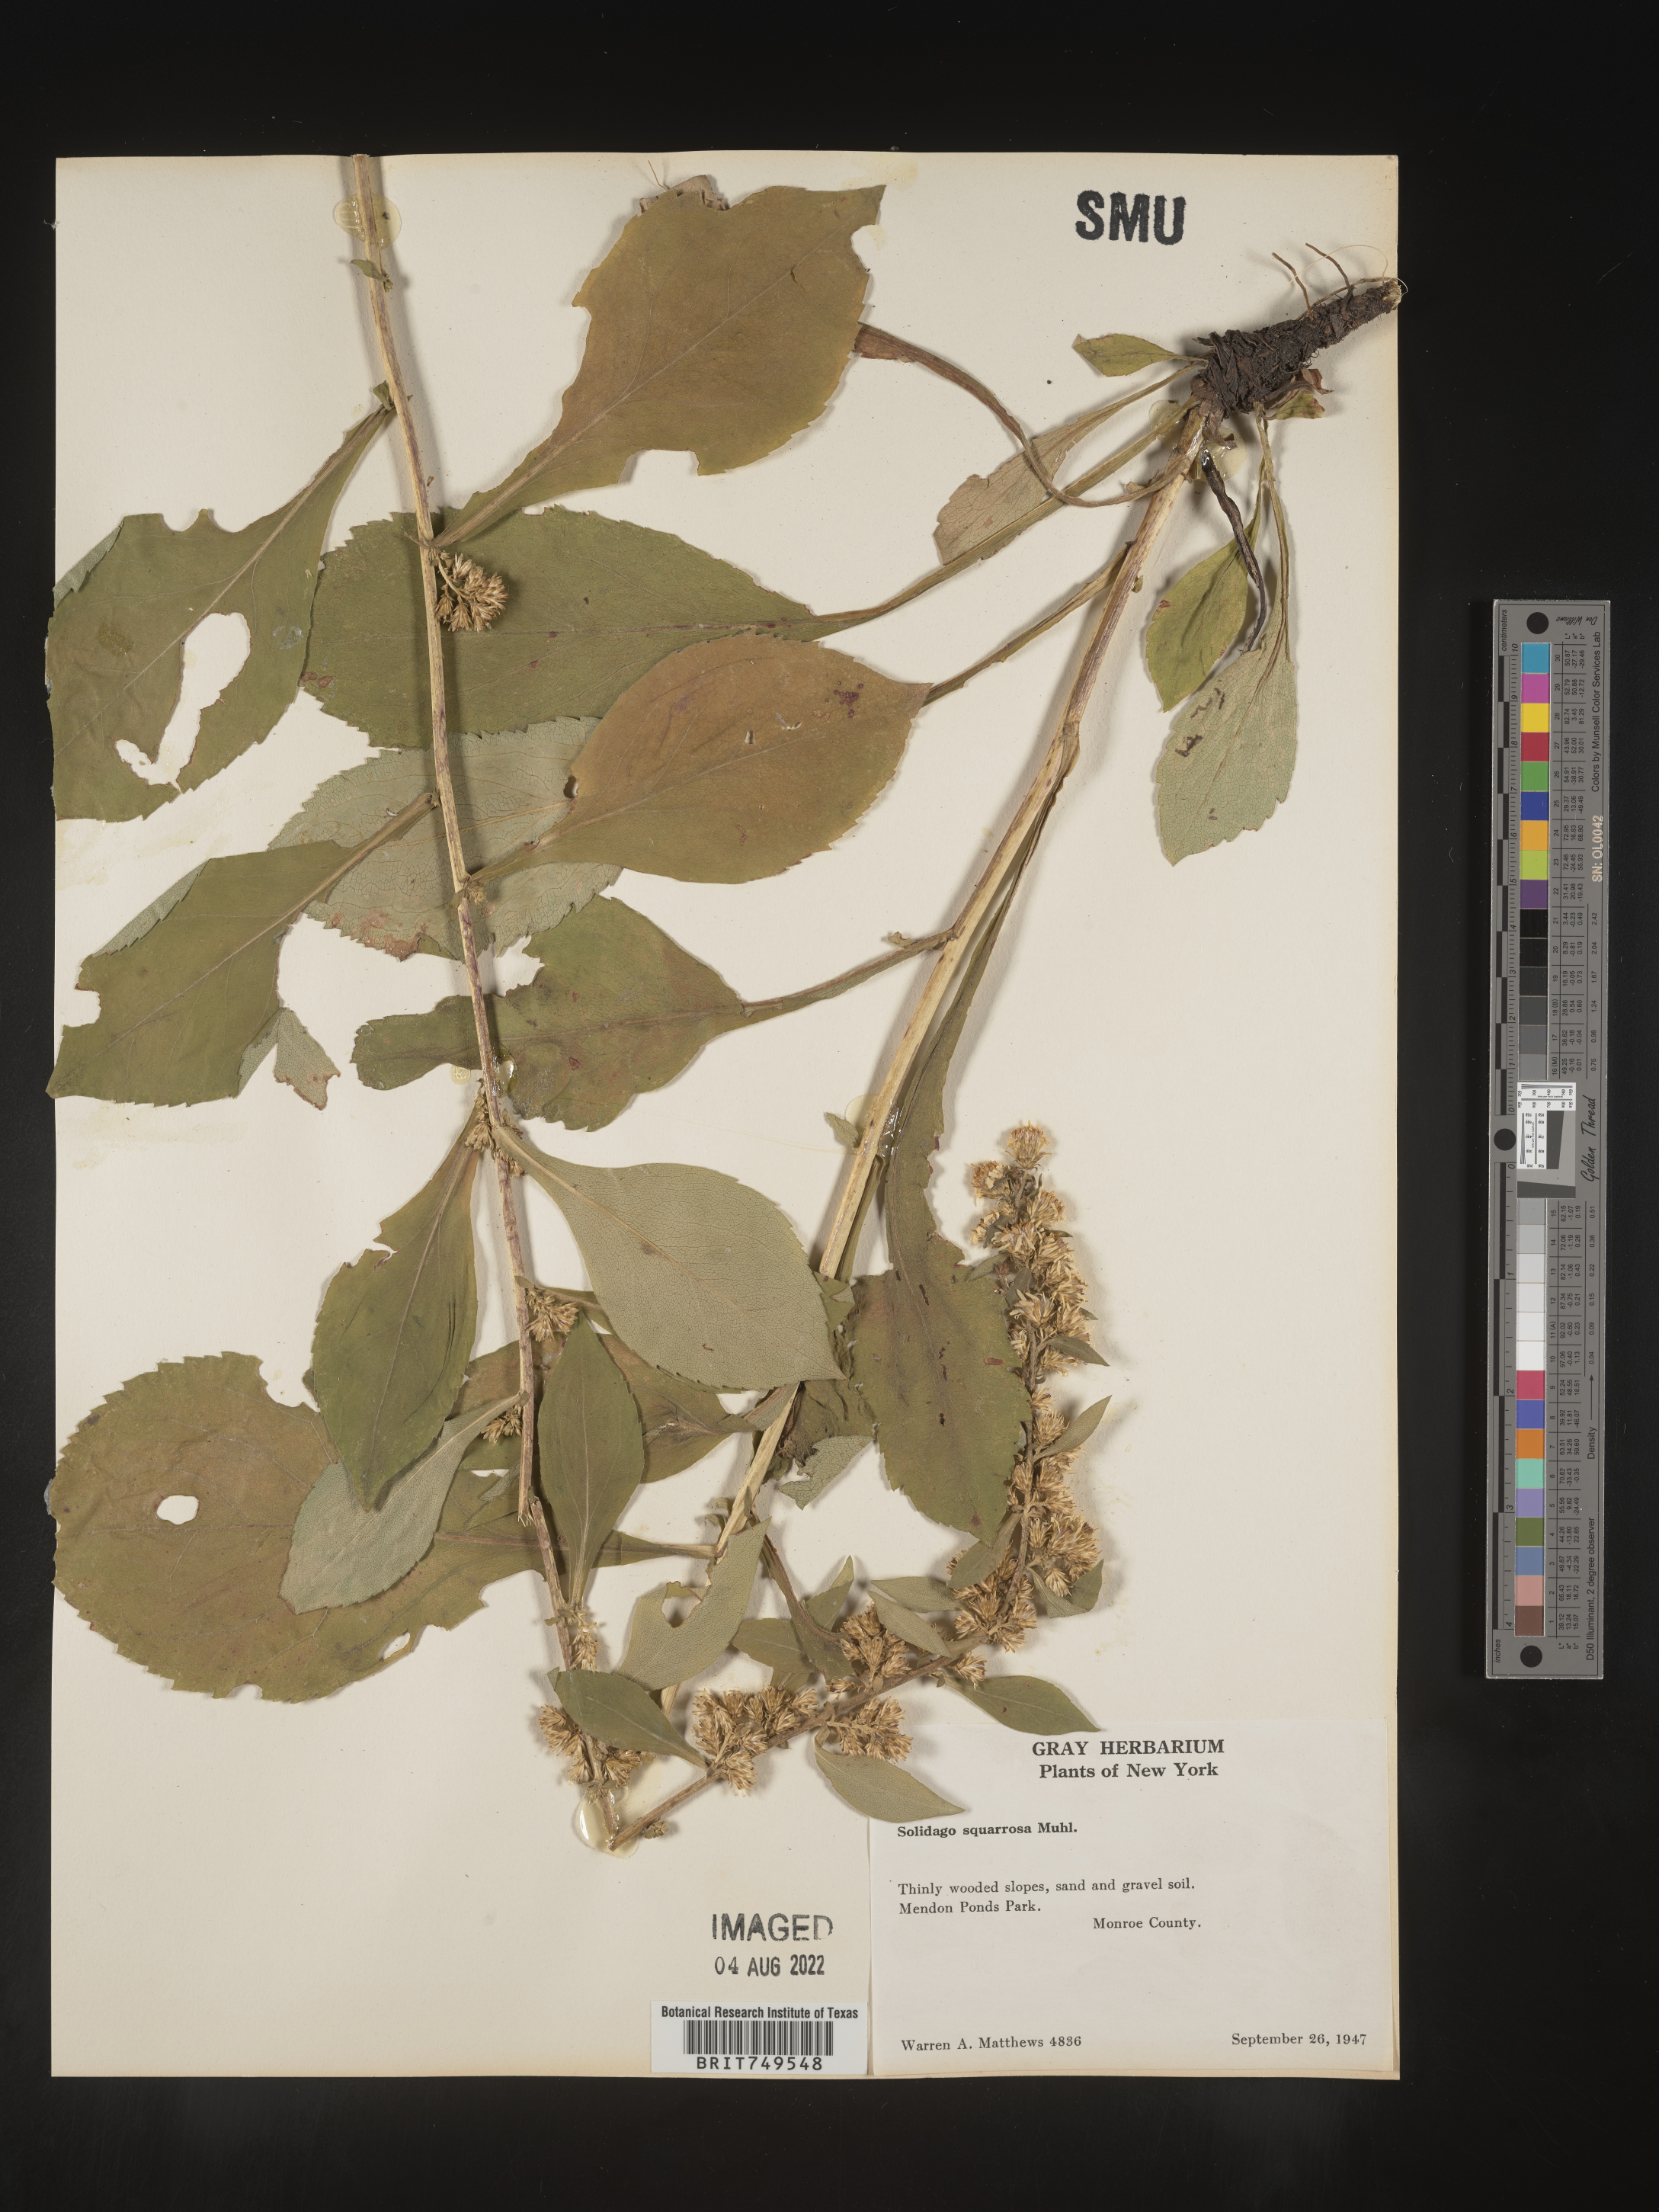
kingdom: Plantae
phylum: Tracheophyta
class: Magnoliopsida
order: Asterales
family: Asteraceae
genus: Solidago
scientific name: Solidago squarrosa
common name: Stout goldenrod
